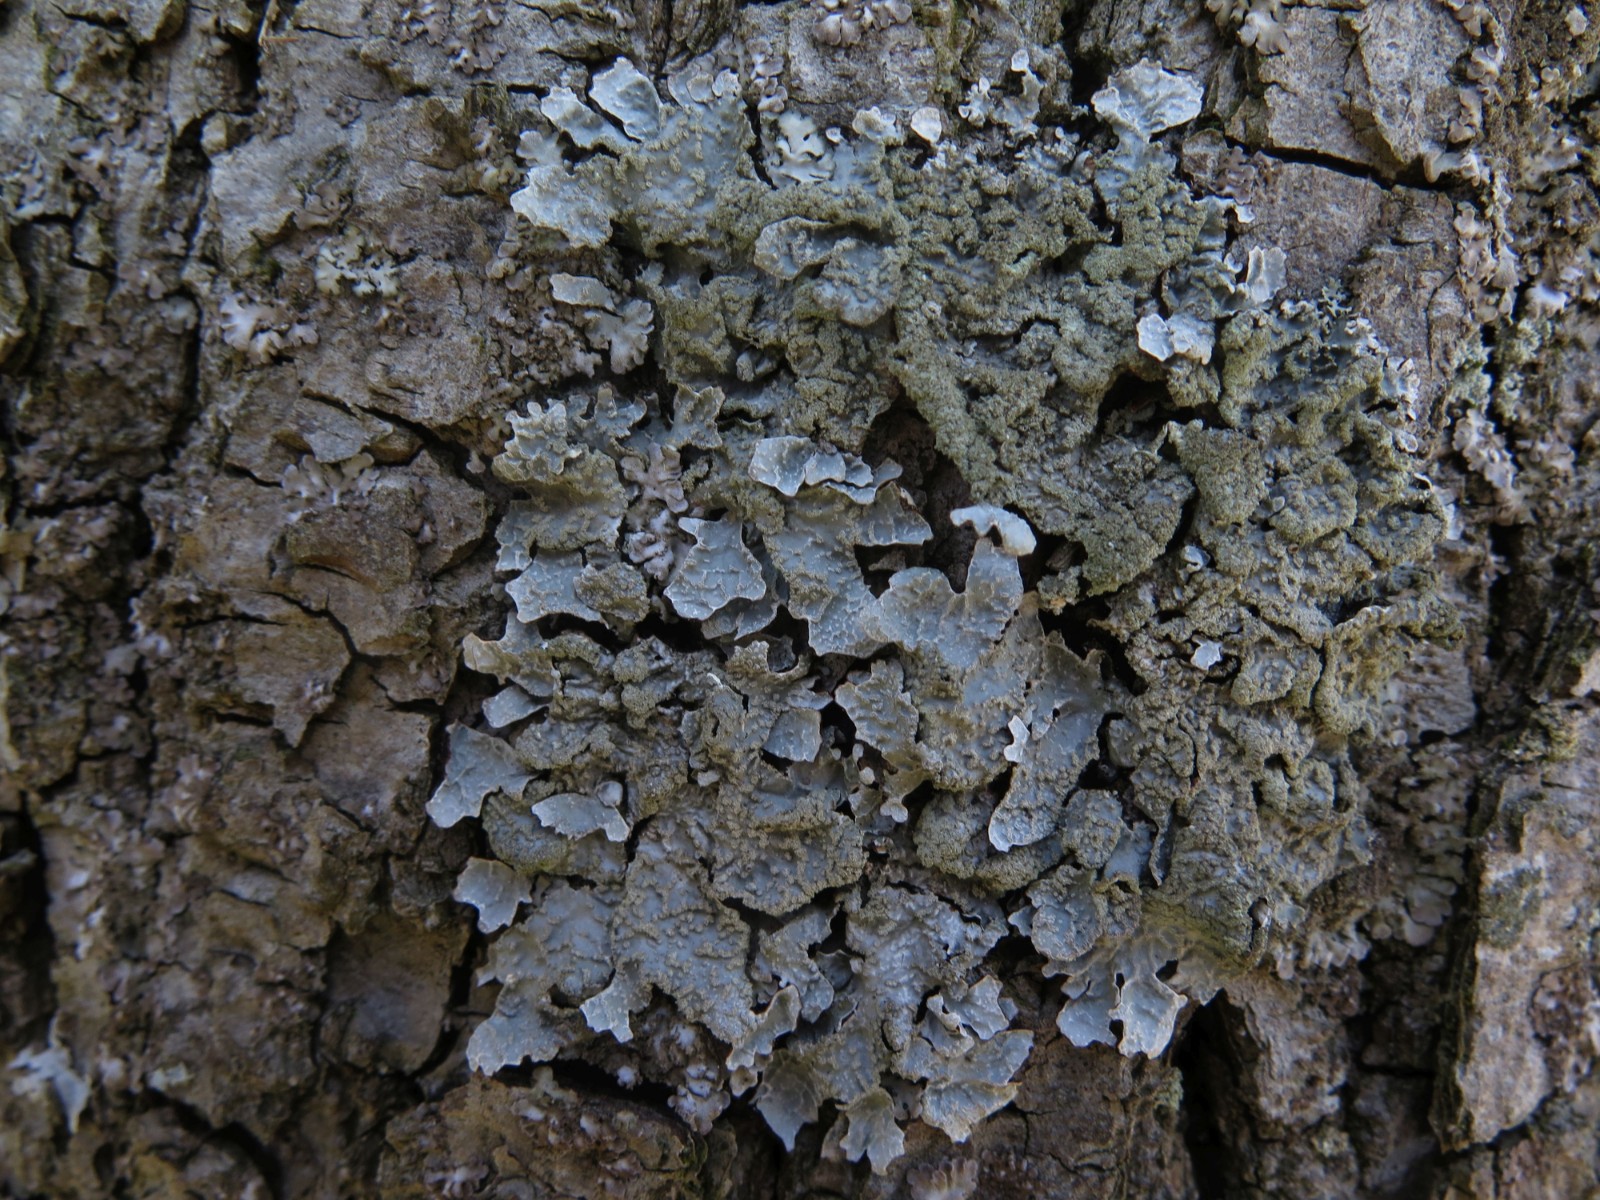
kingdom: Fungi
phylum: Ascomycota
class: Lecanoromycetes
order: Lecanorales
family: Parmeliaceae
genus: Parmelia
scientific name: Parmelia sulcata
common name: rynket skållav
